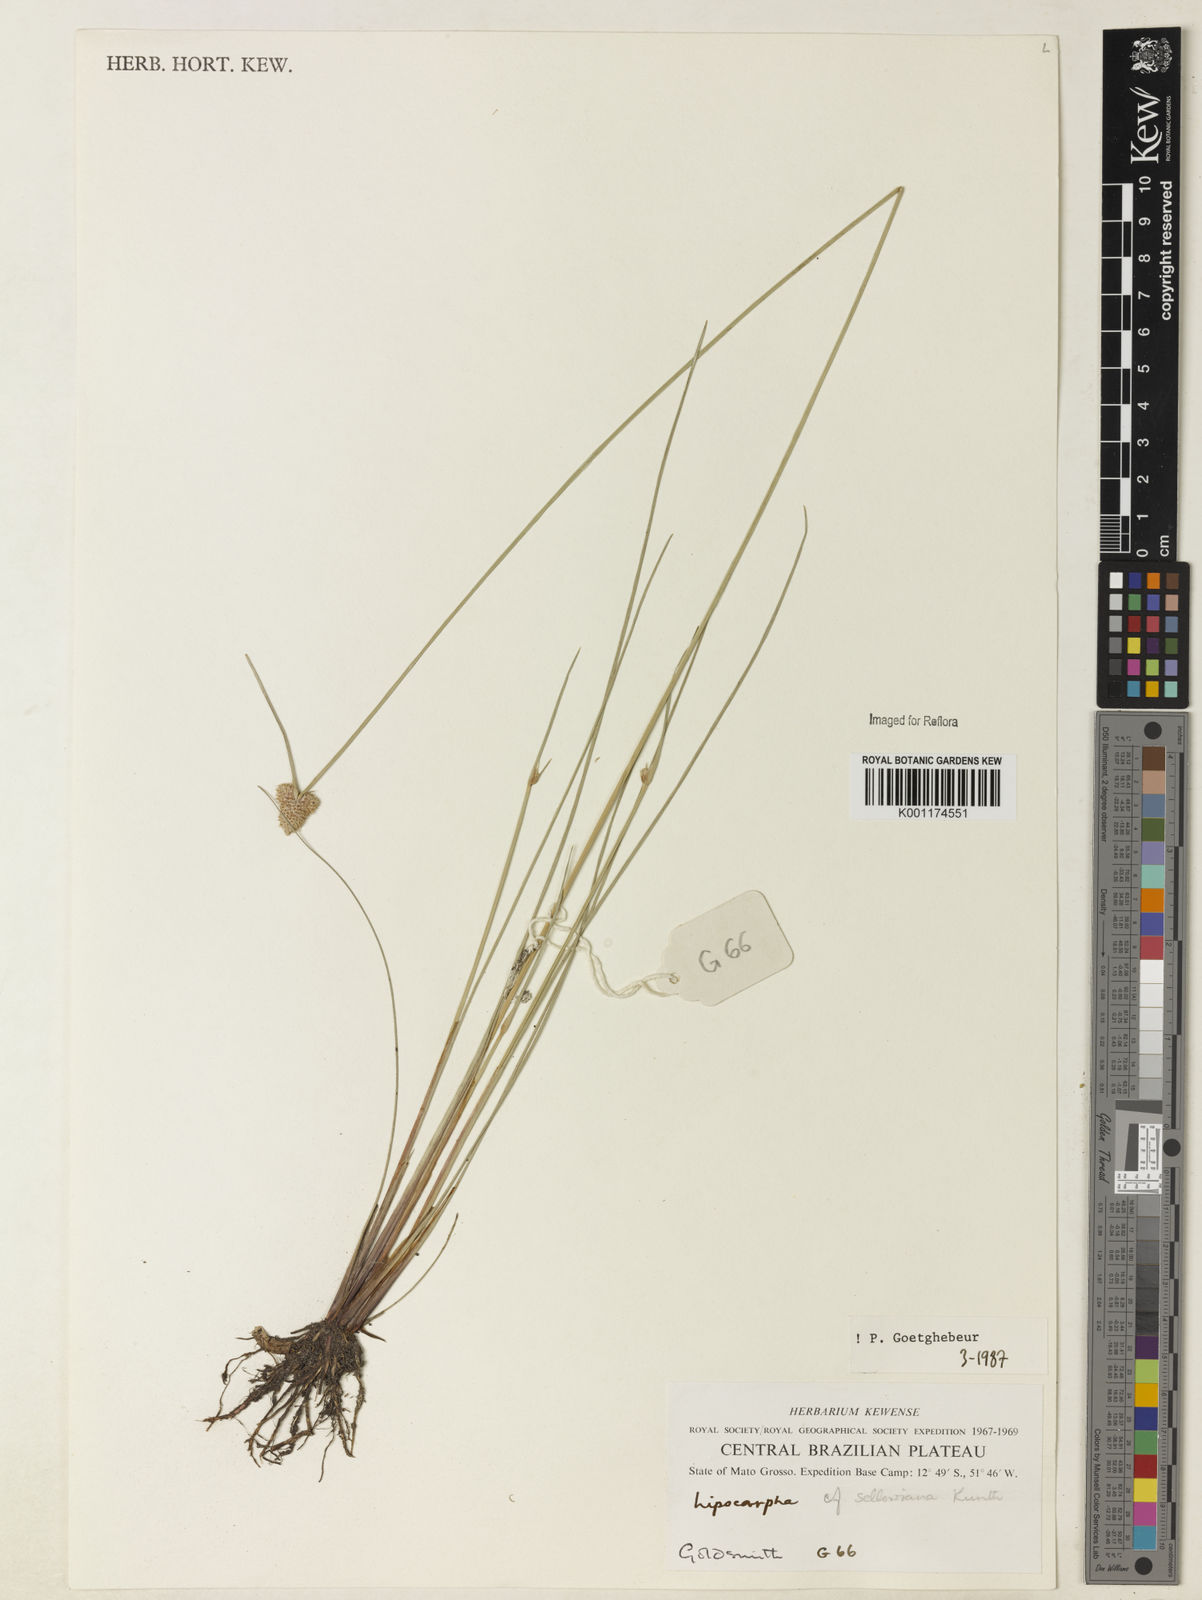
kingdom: Plantae
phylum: Tracheophyta
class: Liliopsida
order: Poales
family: Cyperaceae
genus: Cyperus
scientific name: Cyperus lanceolatus
